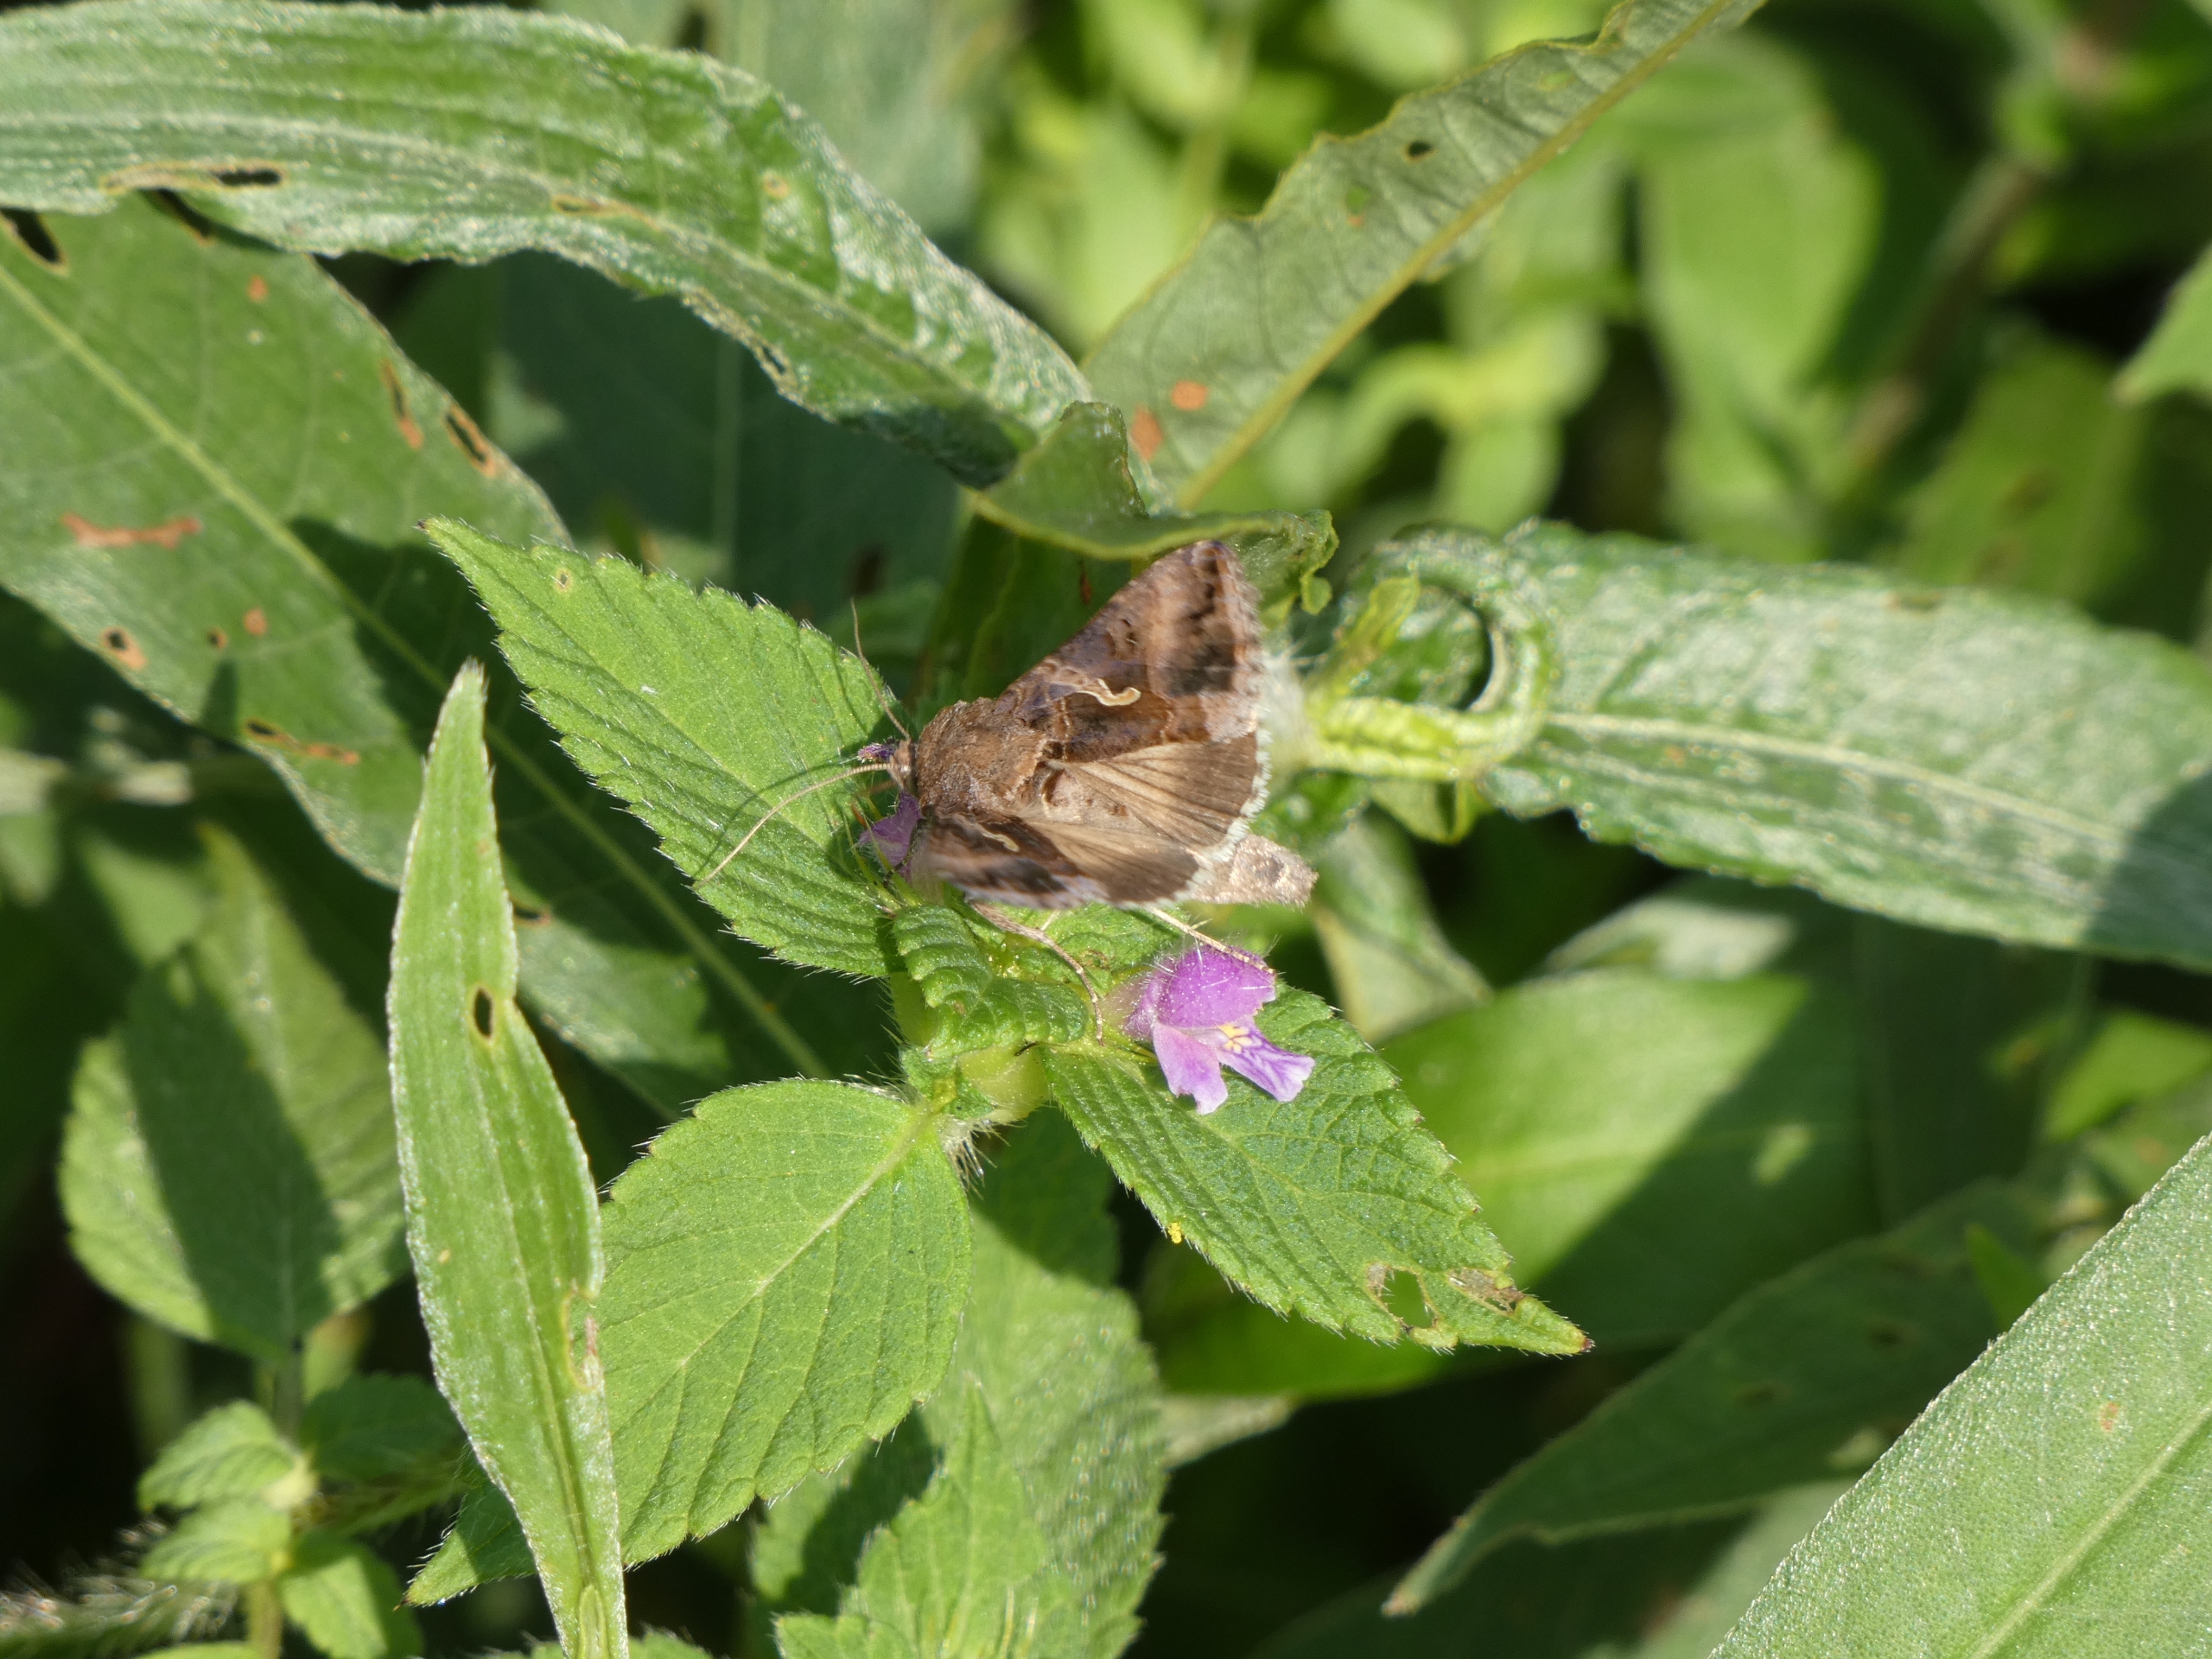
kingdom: Animalia
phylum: Arthropoda
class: Insecta
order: Lepidoptera
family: Noctuidae
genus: Autographa
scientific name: Autographa gamma
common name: Gammaugle
